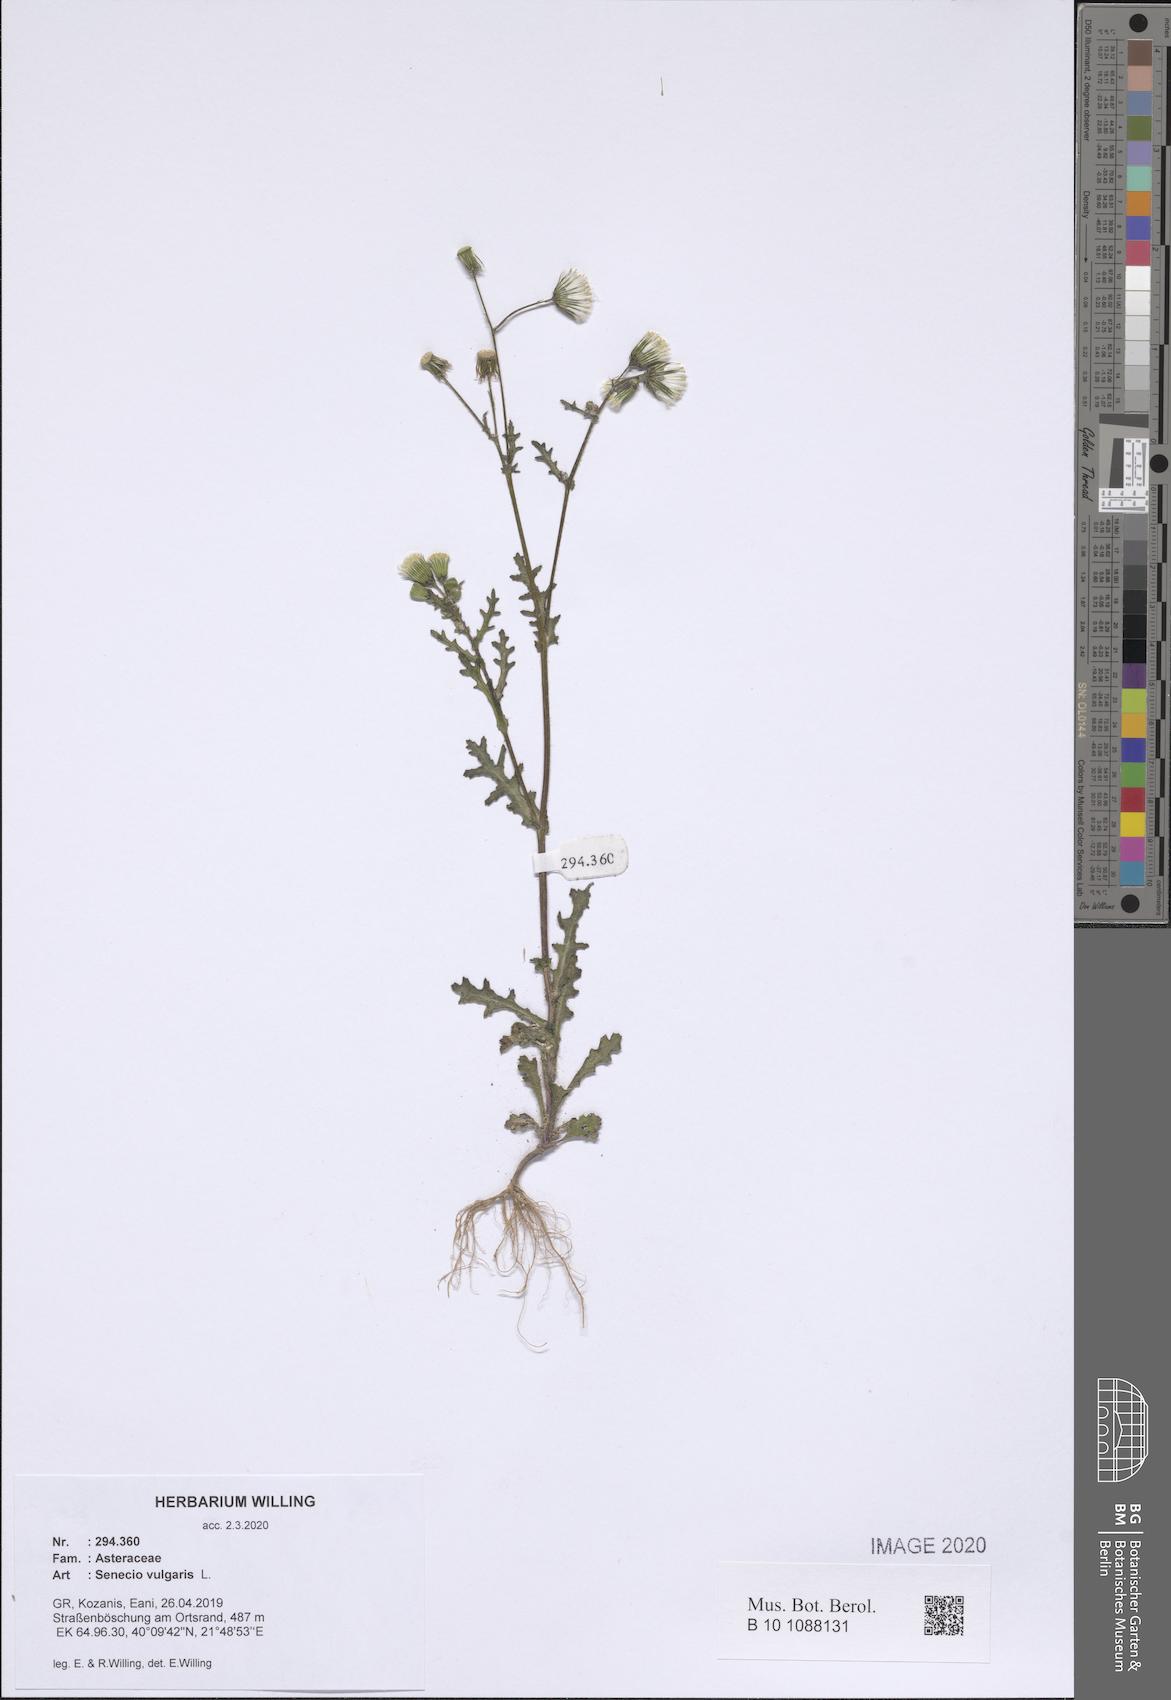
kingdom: Plantae
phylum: Tracheophyta
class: Magnoliopsida
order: Asterales
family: Asteraceae
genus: Senecio
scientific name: Senecio vulgaris
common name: Old-man-in-the-spring
